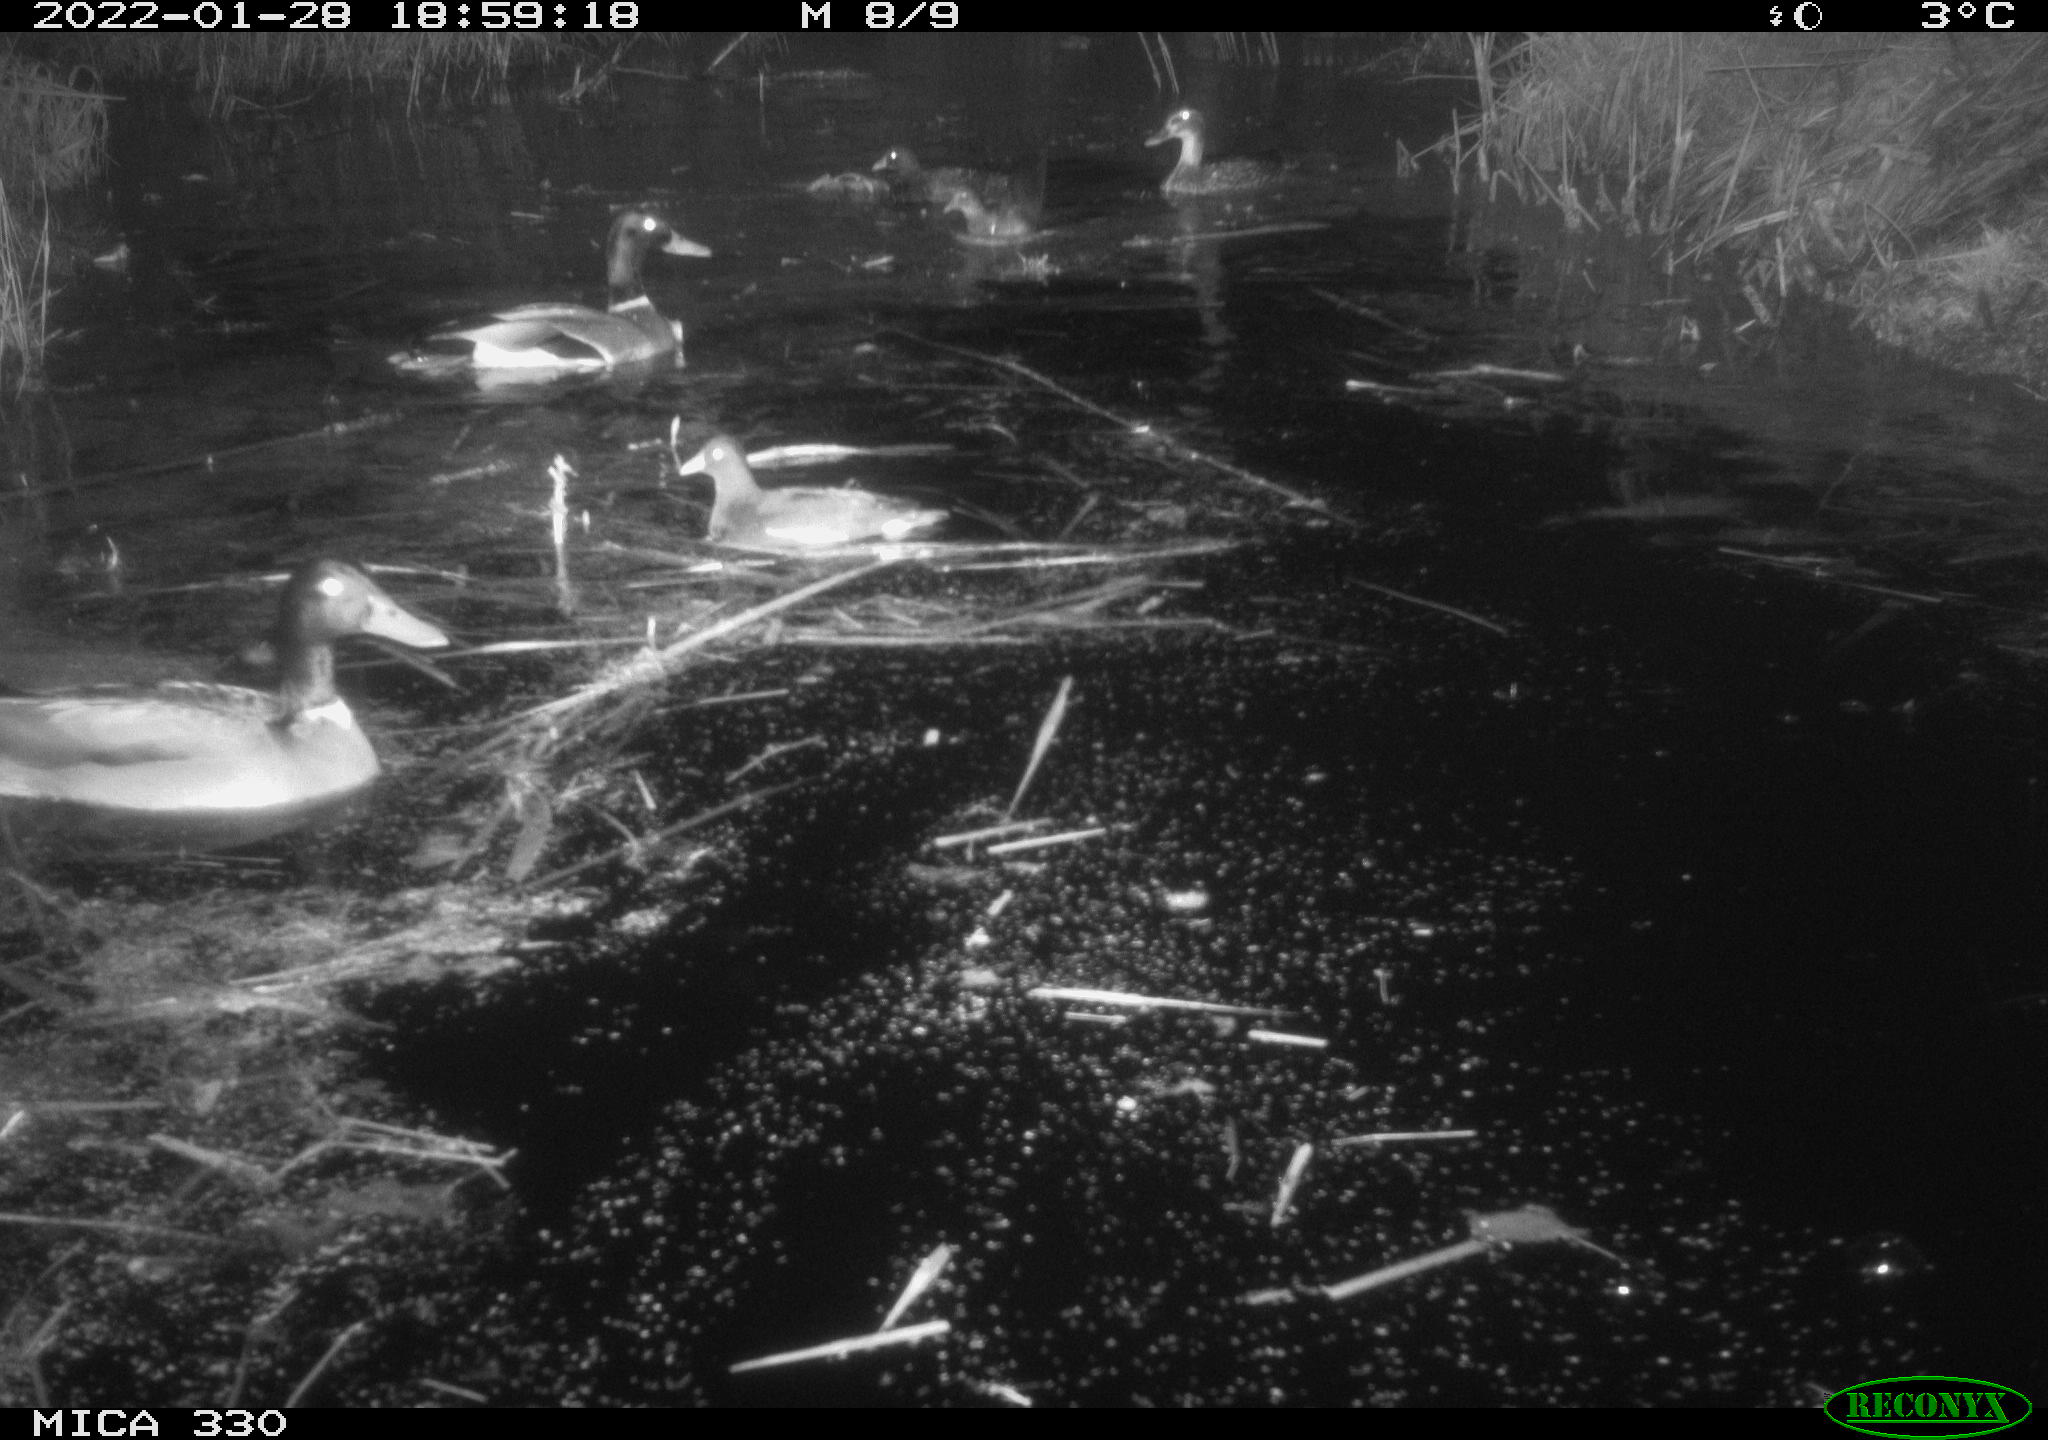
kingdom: Animalia
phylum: Chordata
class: Aves
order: Anseriformes
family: Anatidae
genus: Anas
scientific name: Anas platyrhynchos
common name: Mallard
